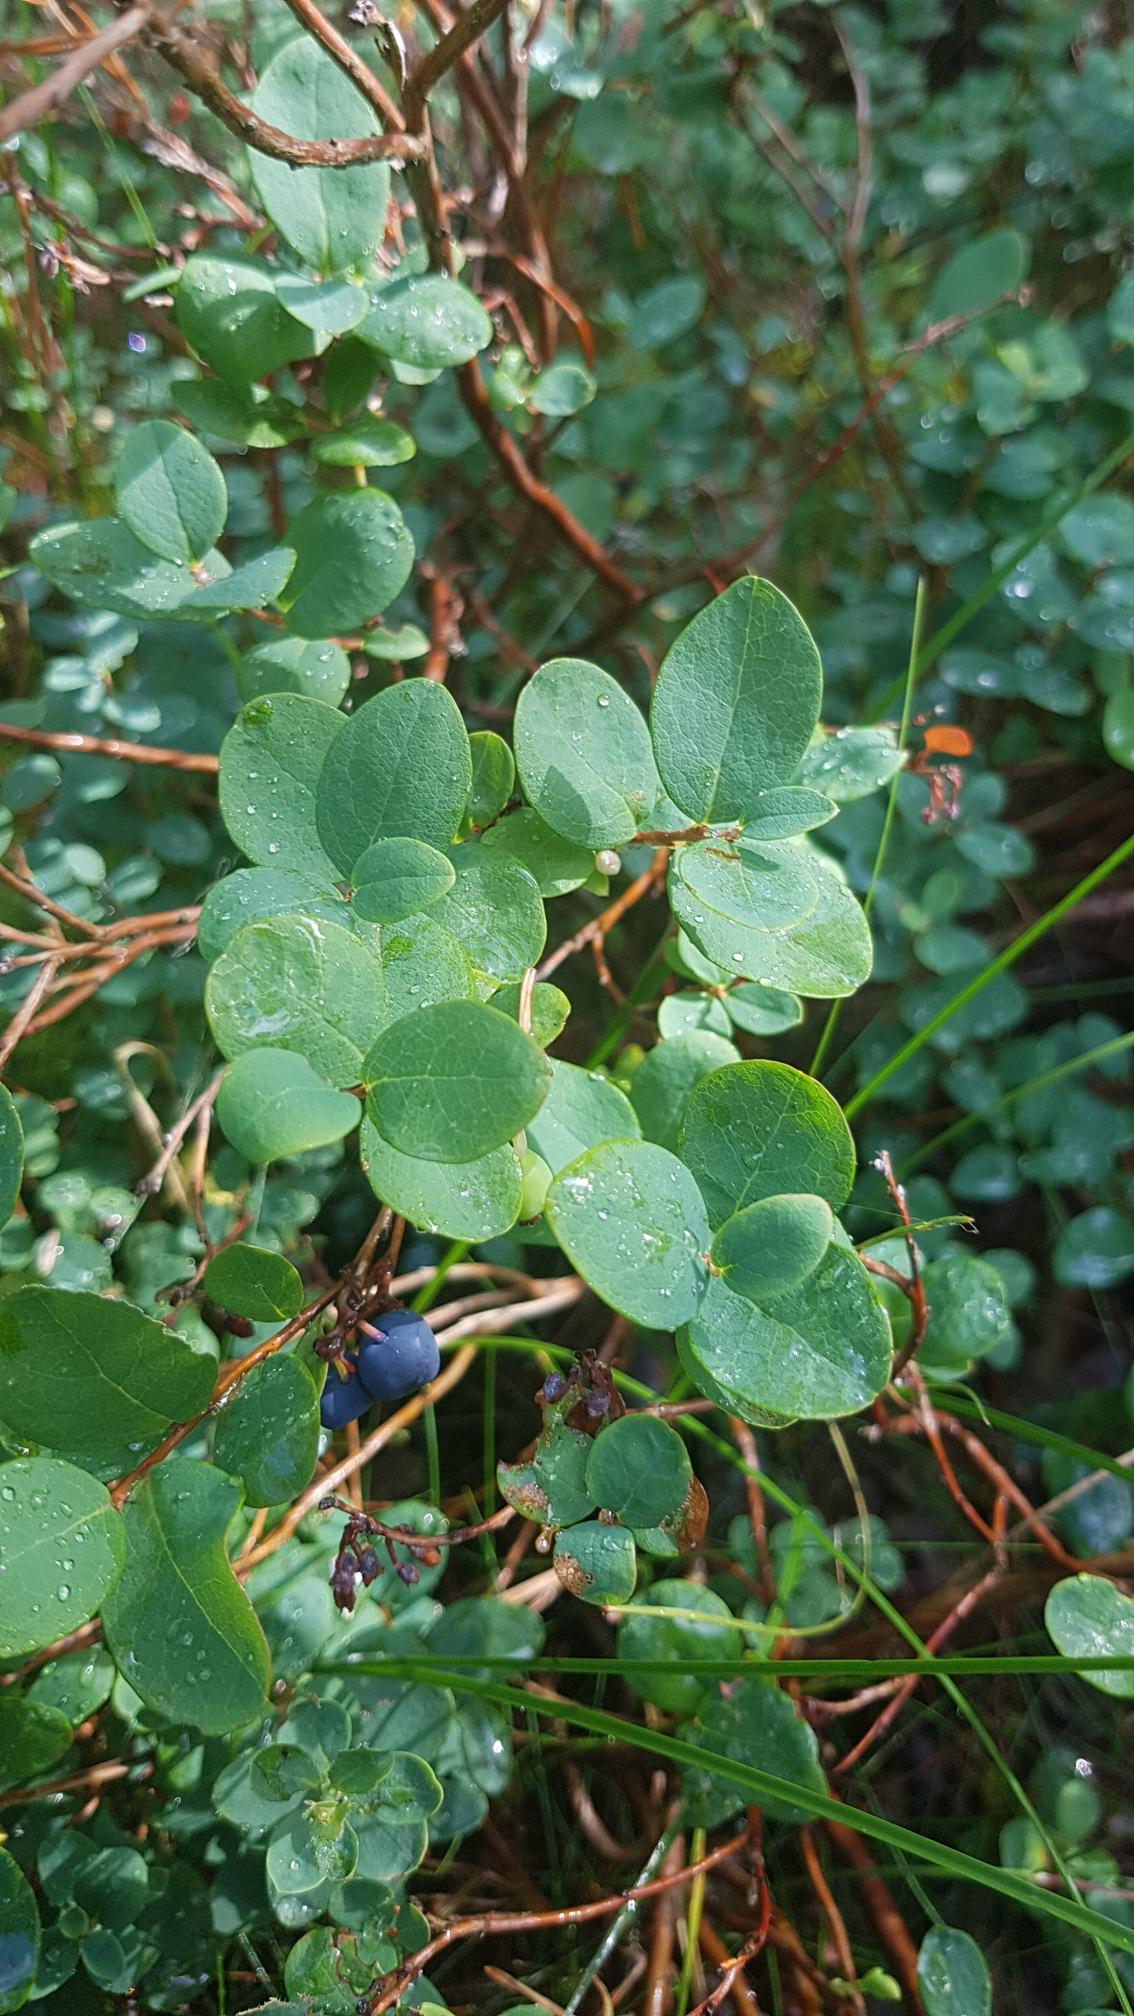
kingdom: Plantae
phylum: Tracheophyta
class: Magnoliopsida
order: Ericales
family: Ericaceae
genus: Vaccinium
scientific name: Vaccinium uliginosum
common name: Mose-bølle
